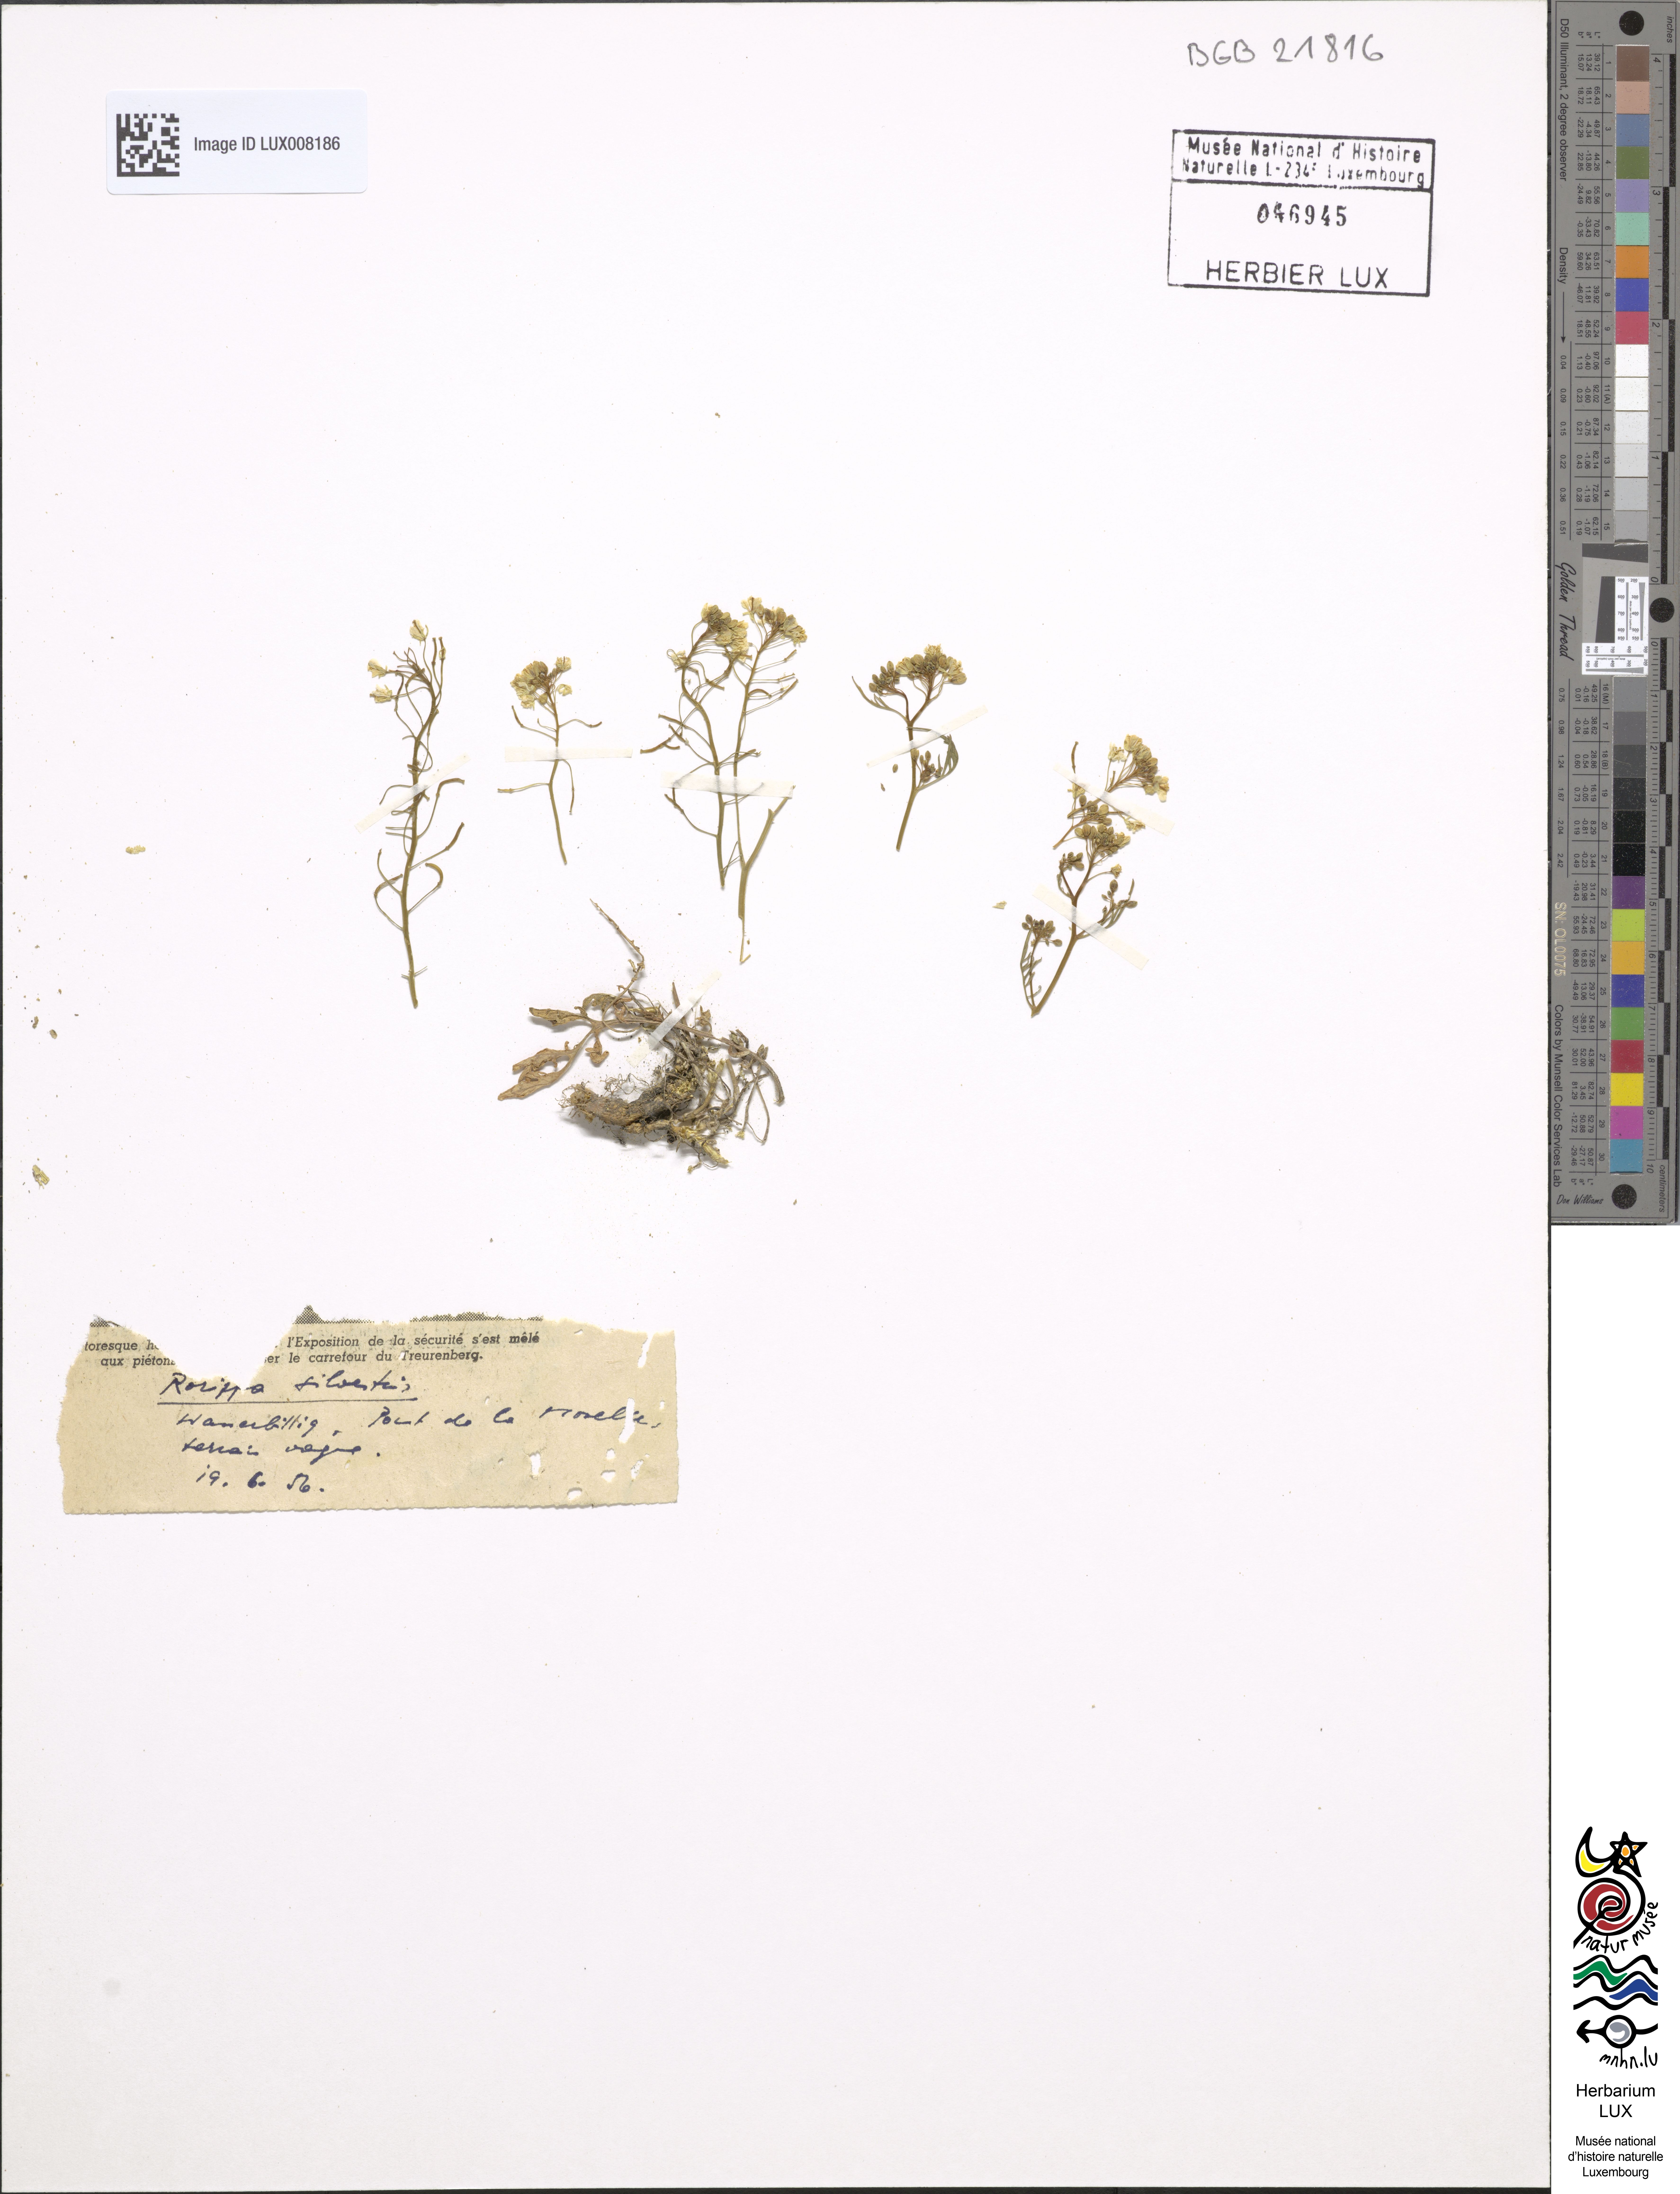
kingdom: Plantae
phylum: Tracheophyta
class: Magnoliopsida
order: Brassicales
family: Brassicaceae
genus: Rorippa
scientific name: Rorippa sylvestris
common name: Creeping yellowcress
